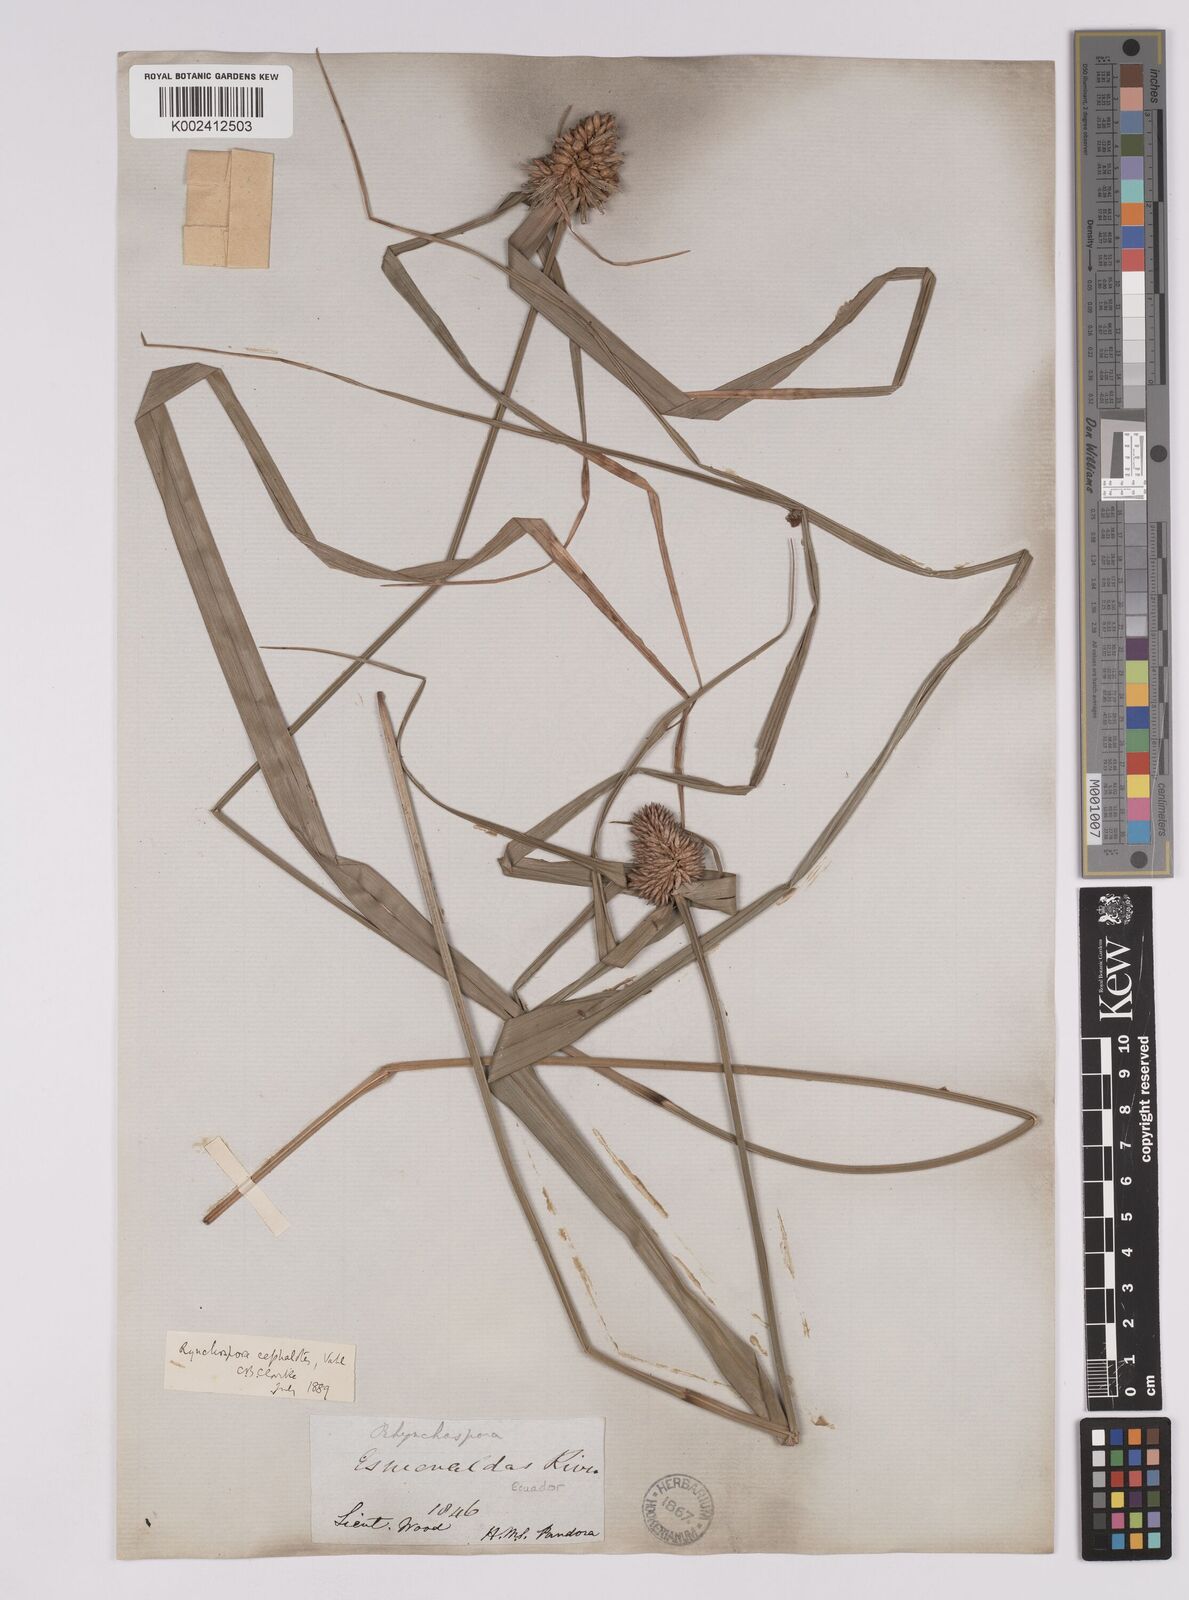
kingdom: Plantae
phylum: Tracheophyta
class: Liliopsida
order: Poales
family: Cyperaceae
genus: Rhynchospora
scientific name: Rhynchospora cephalotes
